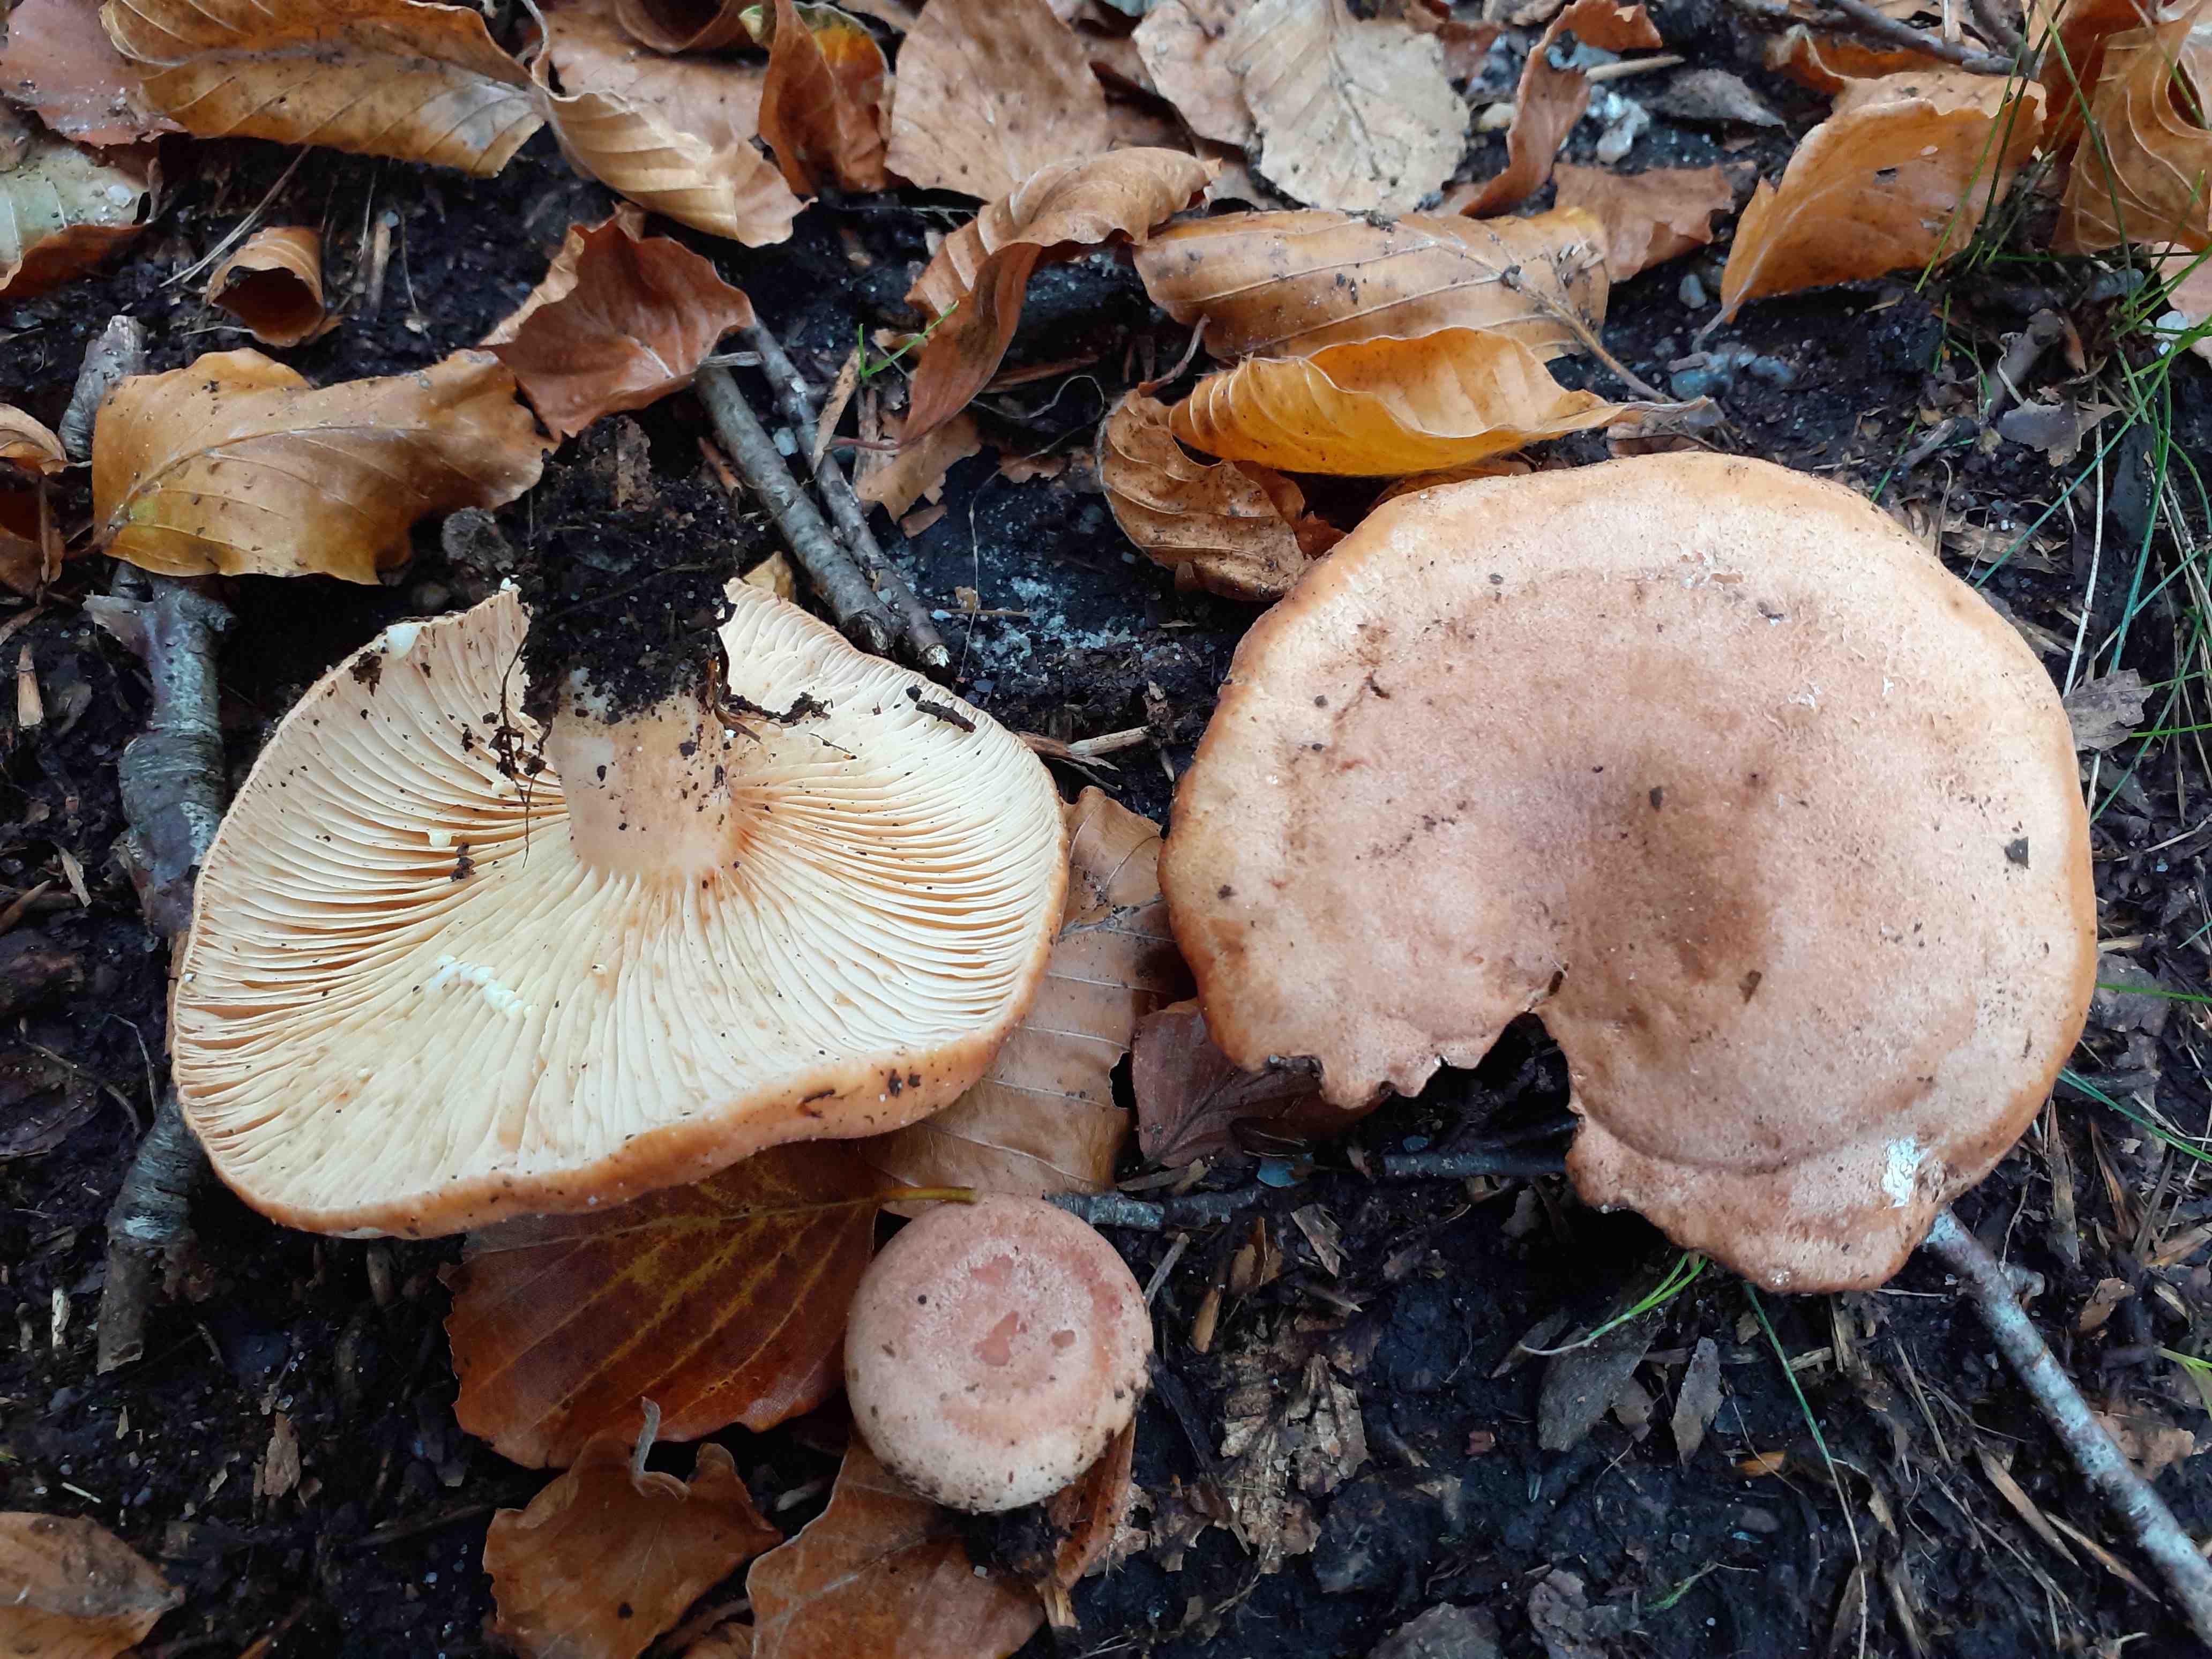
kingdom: Fungi
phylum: Basidiomycota
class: Agaricomycetes
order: Russulales
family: Russulaceae
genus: Lactarius
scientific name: Lactarius chrysorrheus
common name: svovlmælket mælkehat
